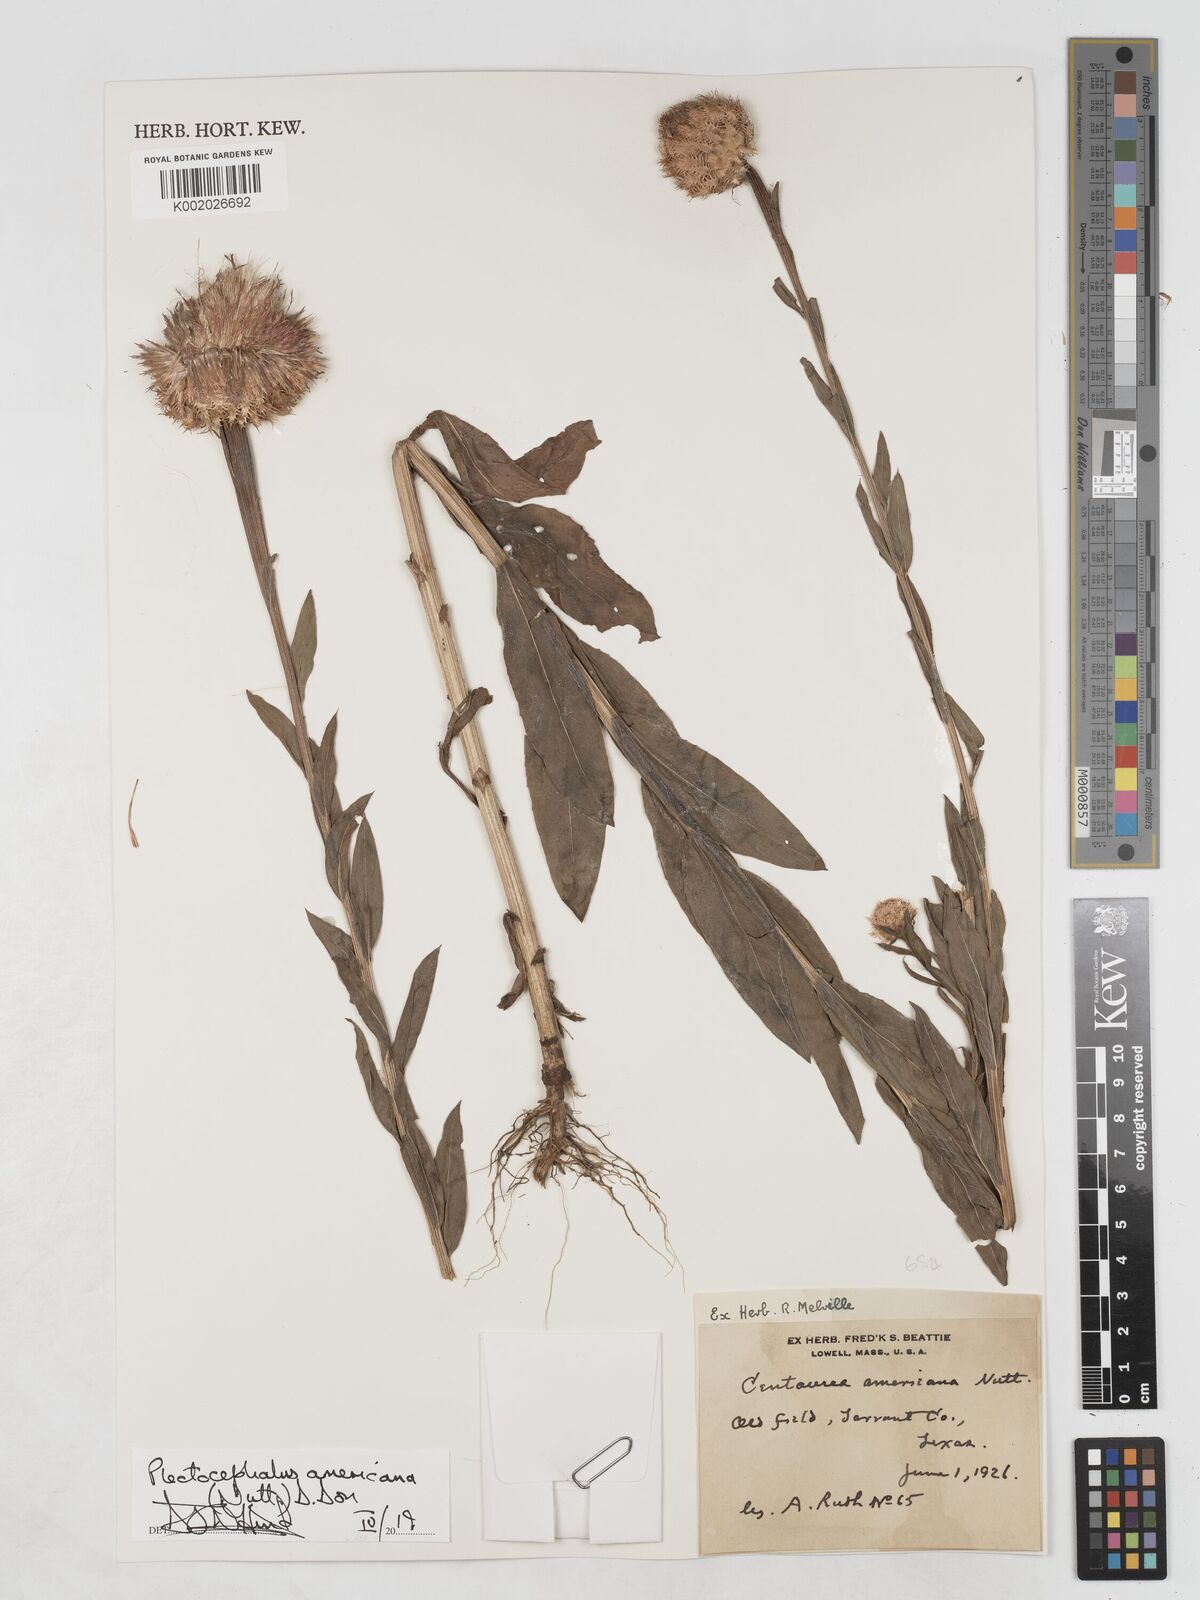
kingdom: Plantae
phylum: Tracheophyta
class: Magnoliopsida
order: Asterales
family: Asteraceae
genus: Plectocephalus
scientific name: Plectocephalus americanus
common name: American basket-flower
